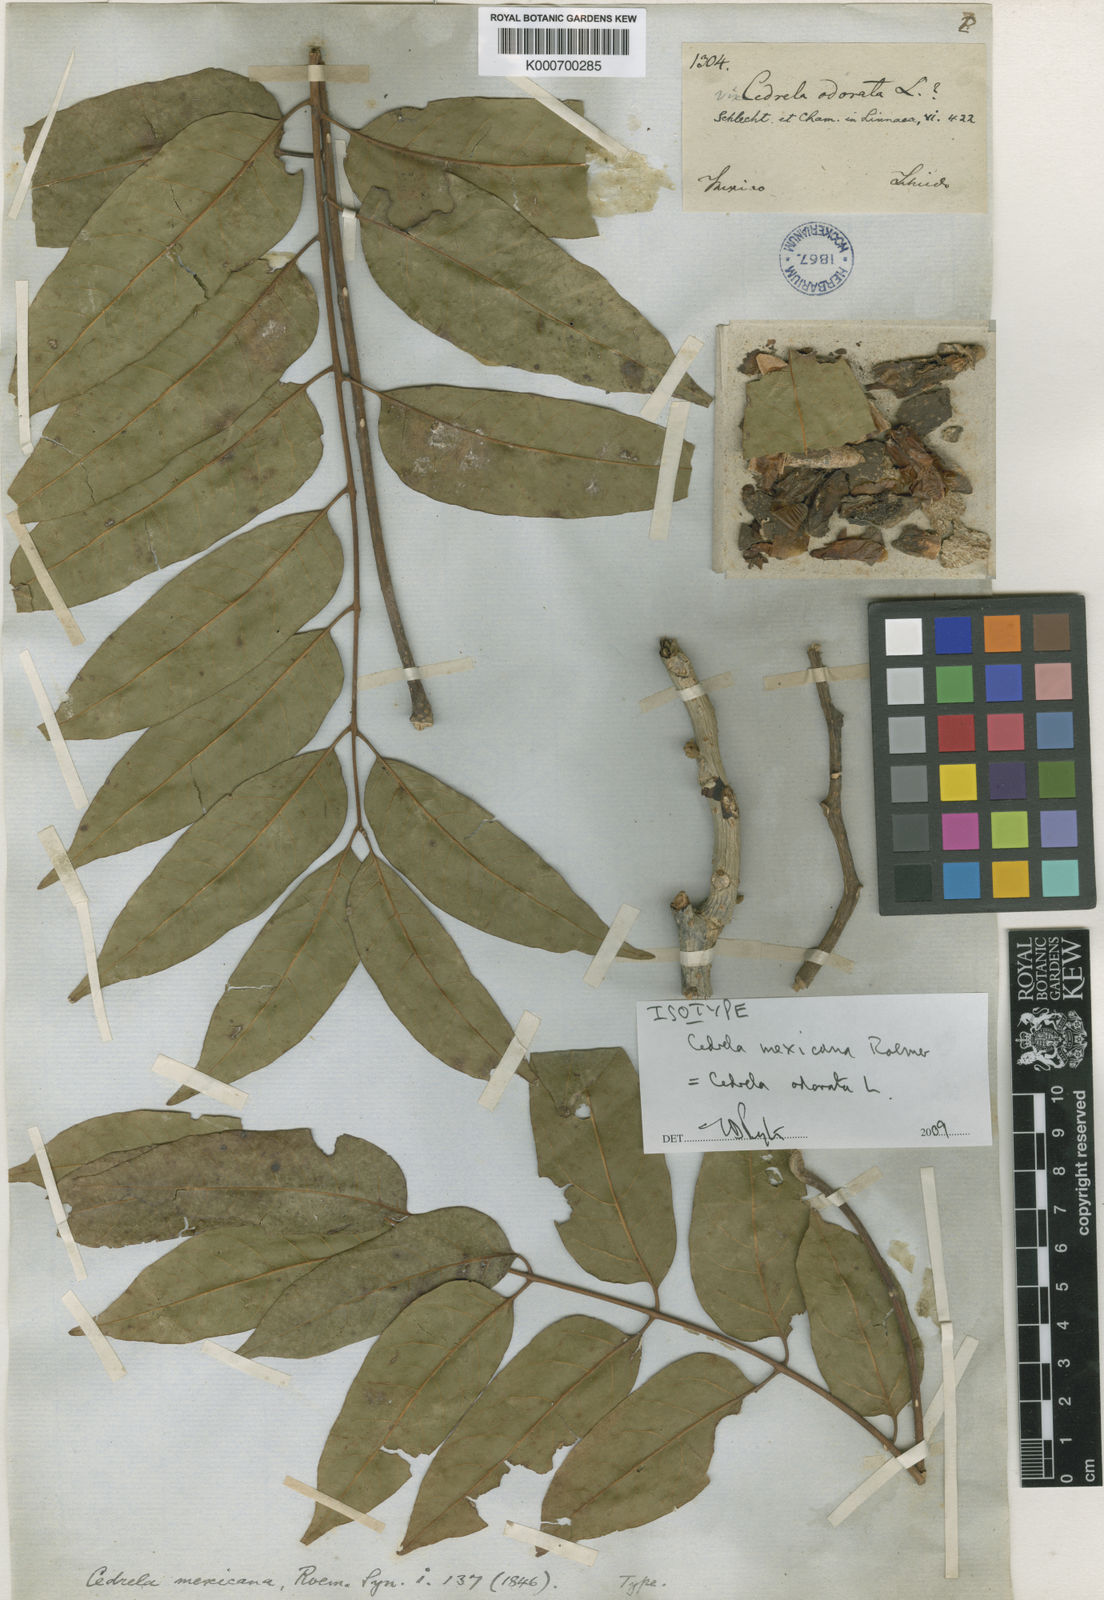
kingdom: Plantae
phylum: Tracheophyta
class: Magnoliopsida
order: Sapindales
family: Meliaceae
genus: Cedrela
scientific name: Cedrela odorata
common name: Red cedar
